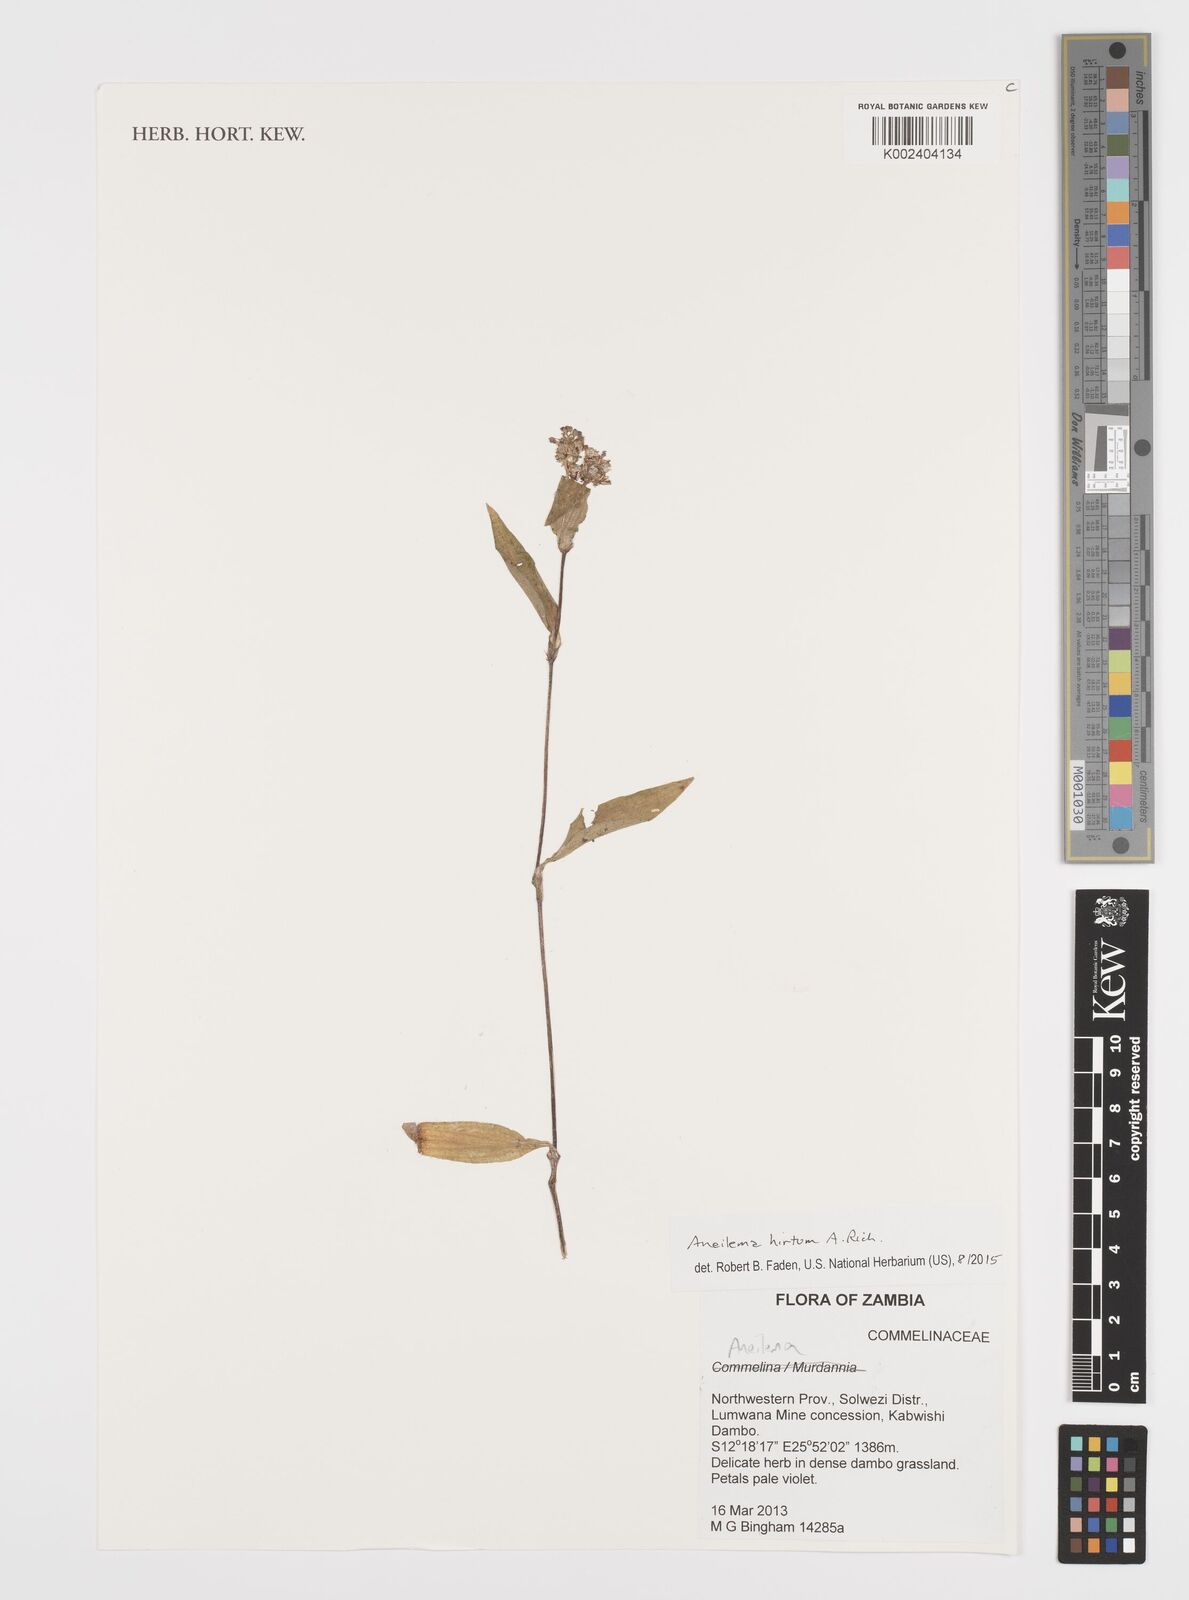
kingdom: Plantae
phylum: Tracheophyta
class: Liliopsida
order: Commelinales
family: Commelinaceae
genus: Aneilema
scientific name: Aneilema hirtum
